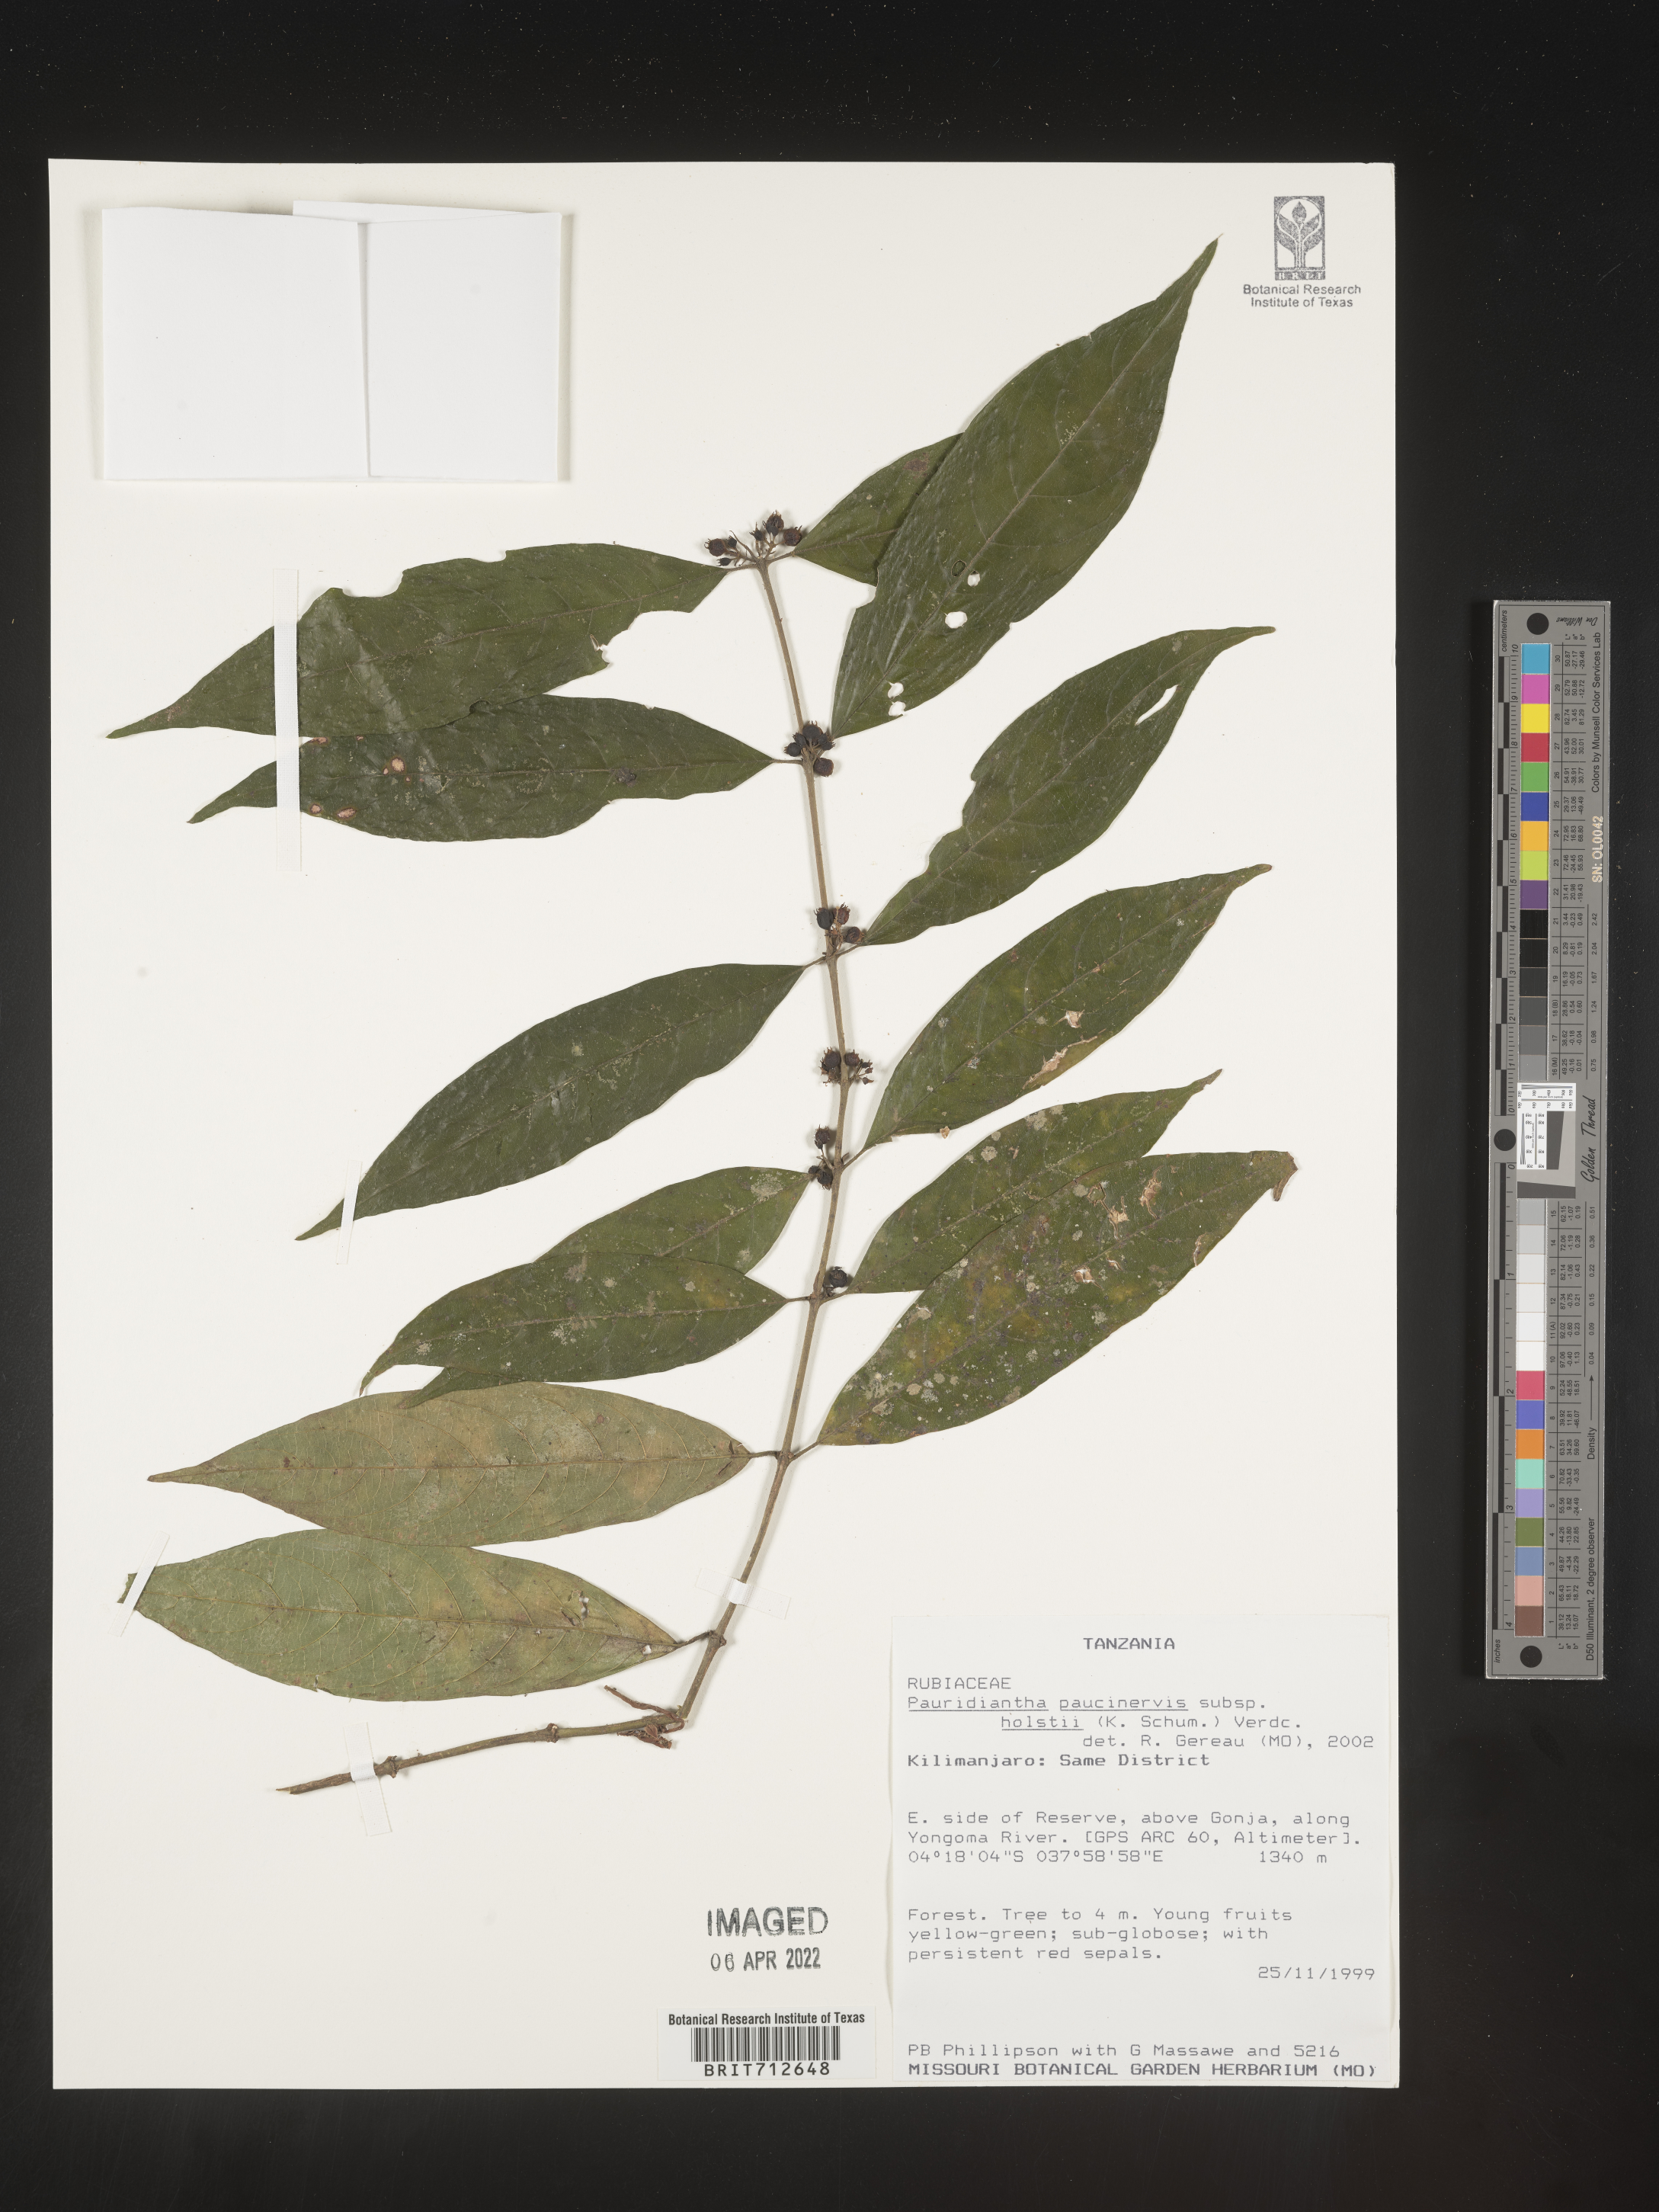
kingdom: Plantae
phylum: Tracheophyta
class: Magnoliopsida
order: Gentianales
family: Rubiaceae
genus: Pauridiantha
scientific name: Pauridiantha
